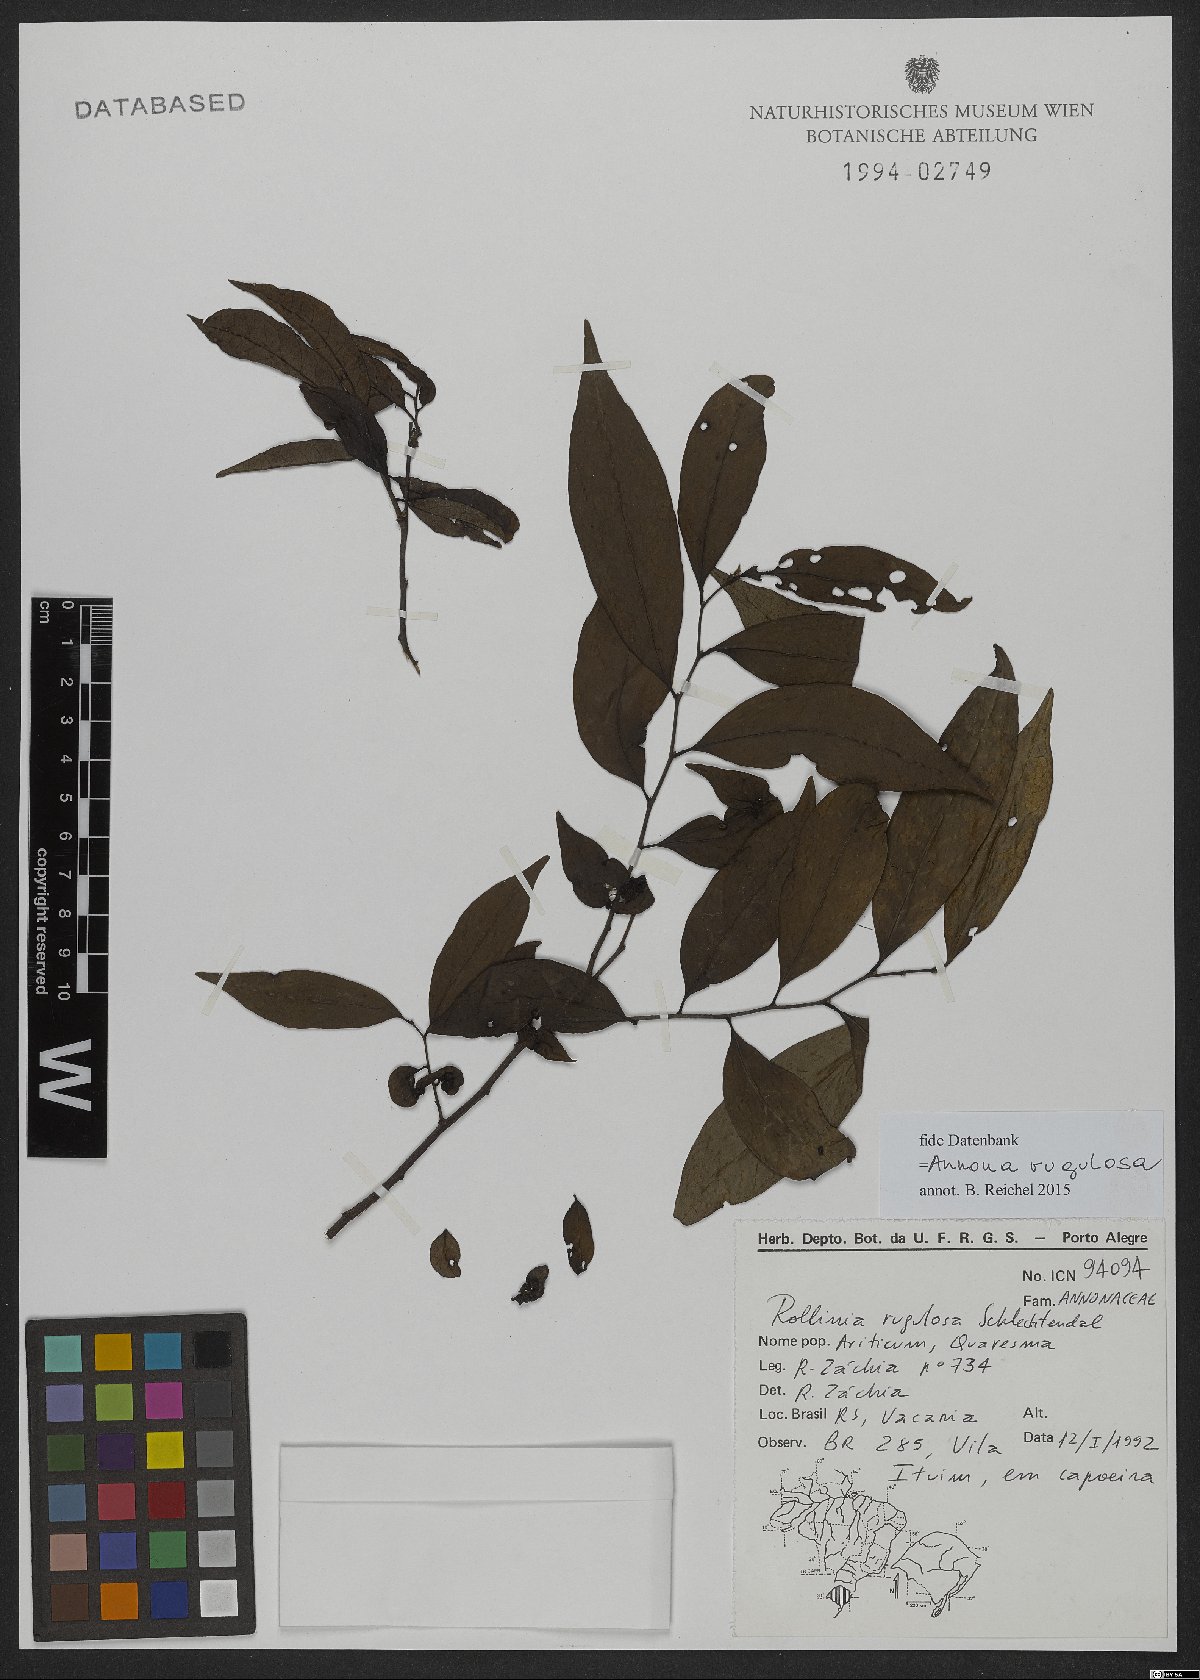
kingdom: Plantae
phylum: Tracheophyta
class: Magnoliopsida
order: Magnoliales
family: Annonaceae
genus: Annona
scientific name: Annona rugulosa
